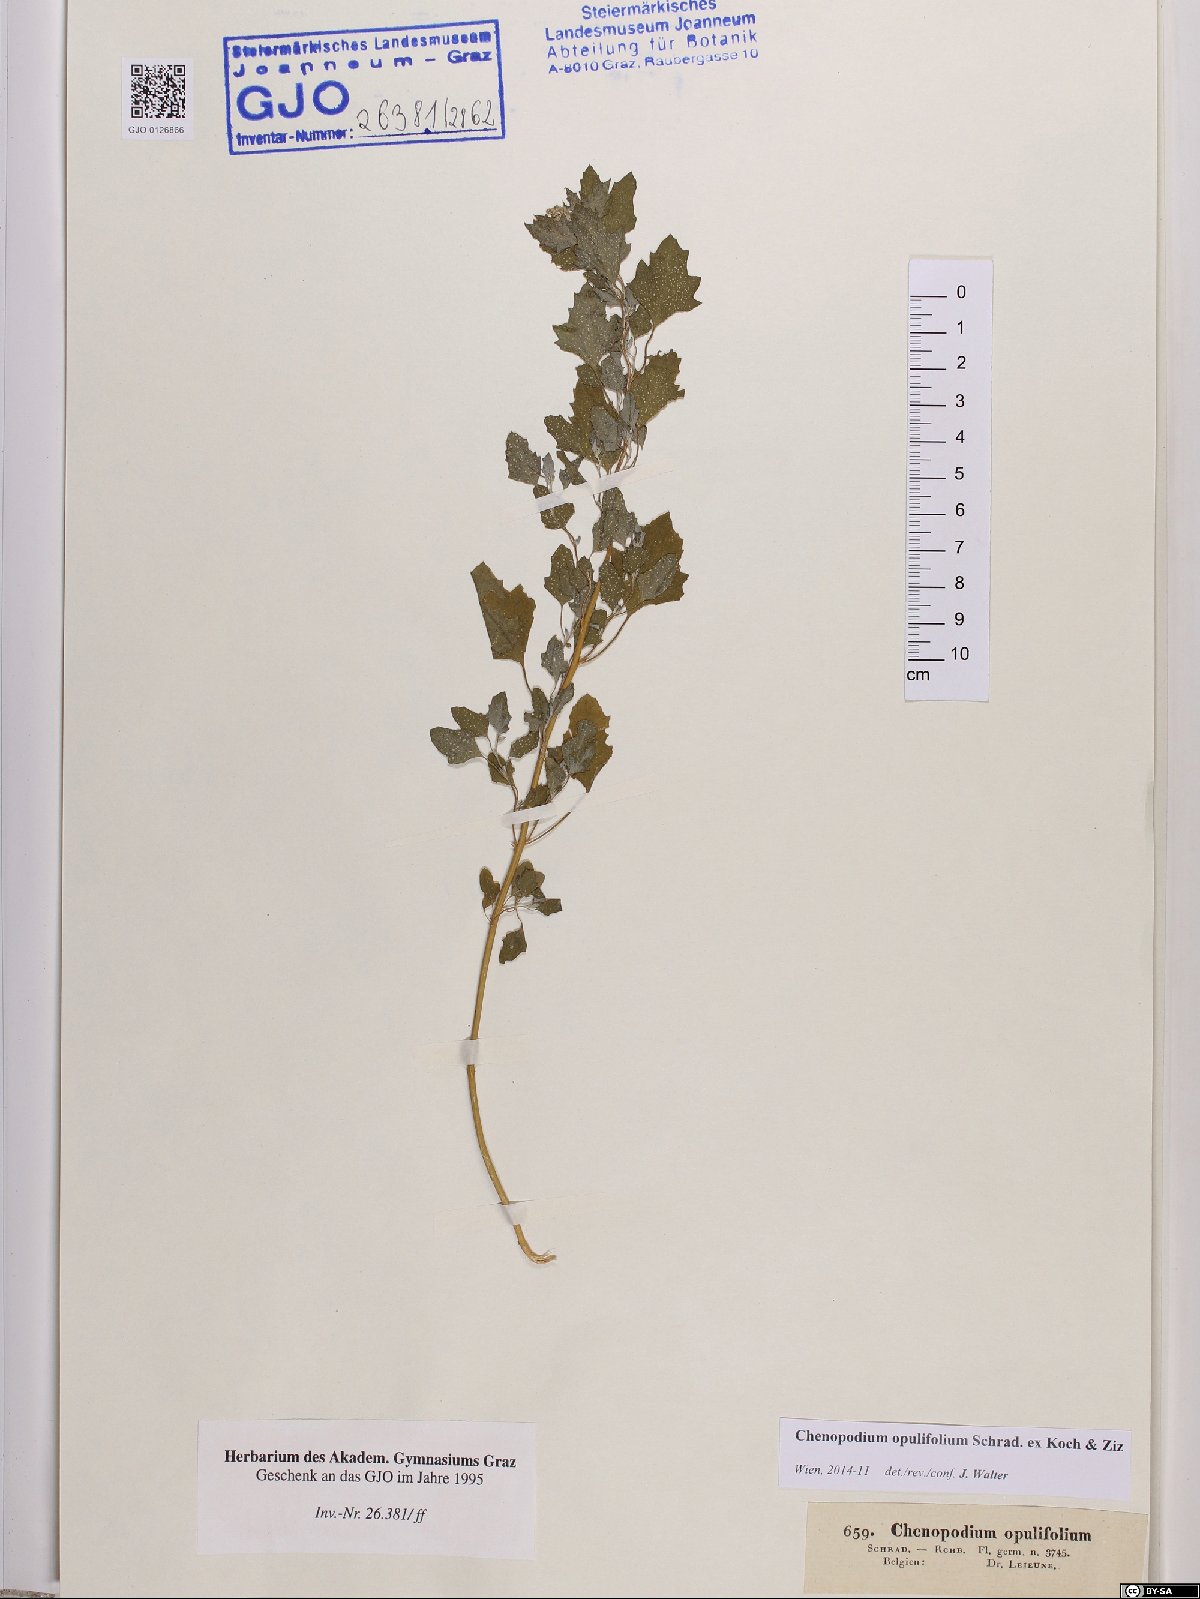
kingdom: Plantae
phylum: Tracheophyta
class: Magnoliopsida
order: Caryophyllales
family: Amaranthaceae
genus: Chenopodium
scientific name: Chenopodium opulifolium
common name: Grey goosefoot
